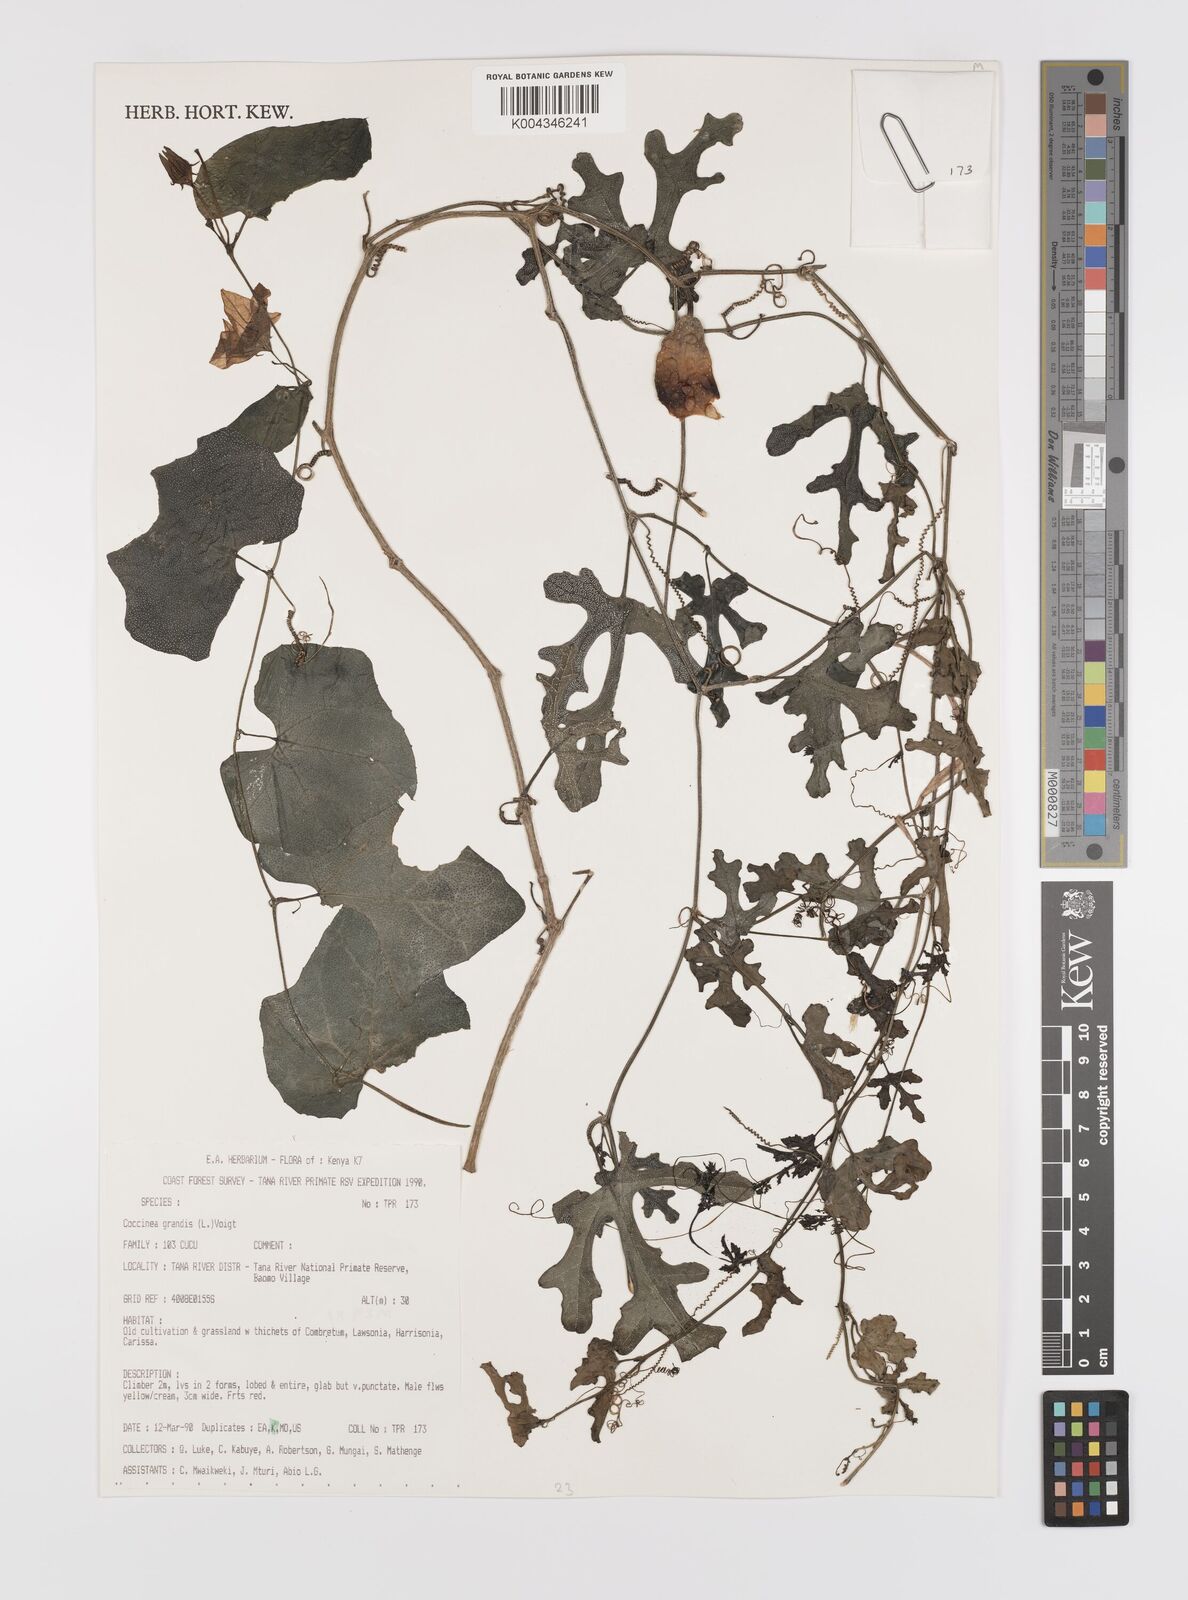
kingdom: Plantae
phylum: Tracheophyta
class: Magnoliopsida
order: Cucurbitales
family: Cucurbitaceae
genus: Coccinia
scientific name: Coccinia grandis
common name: Ivy gourd
